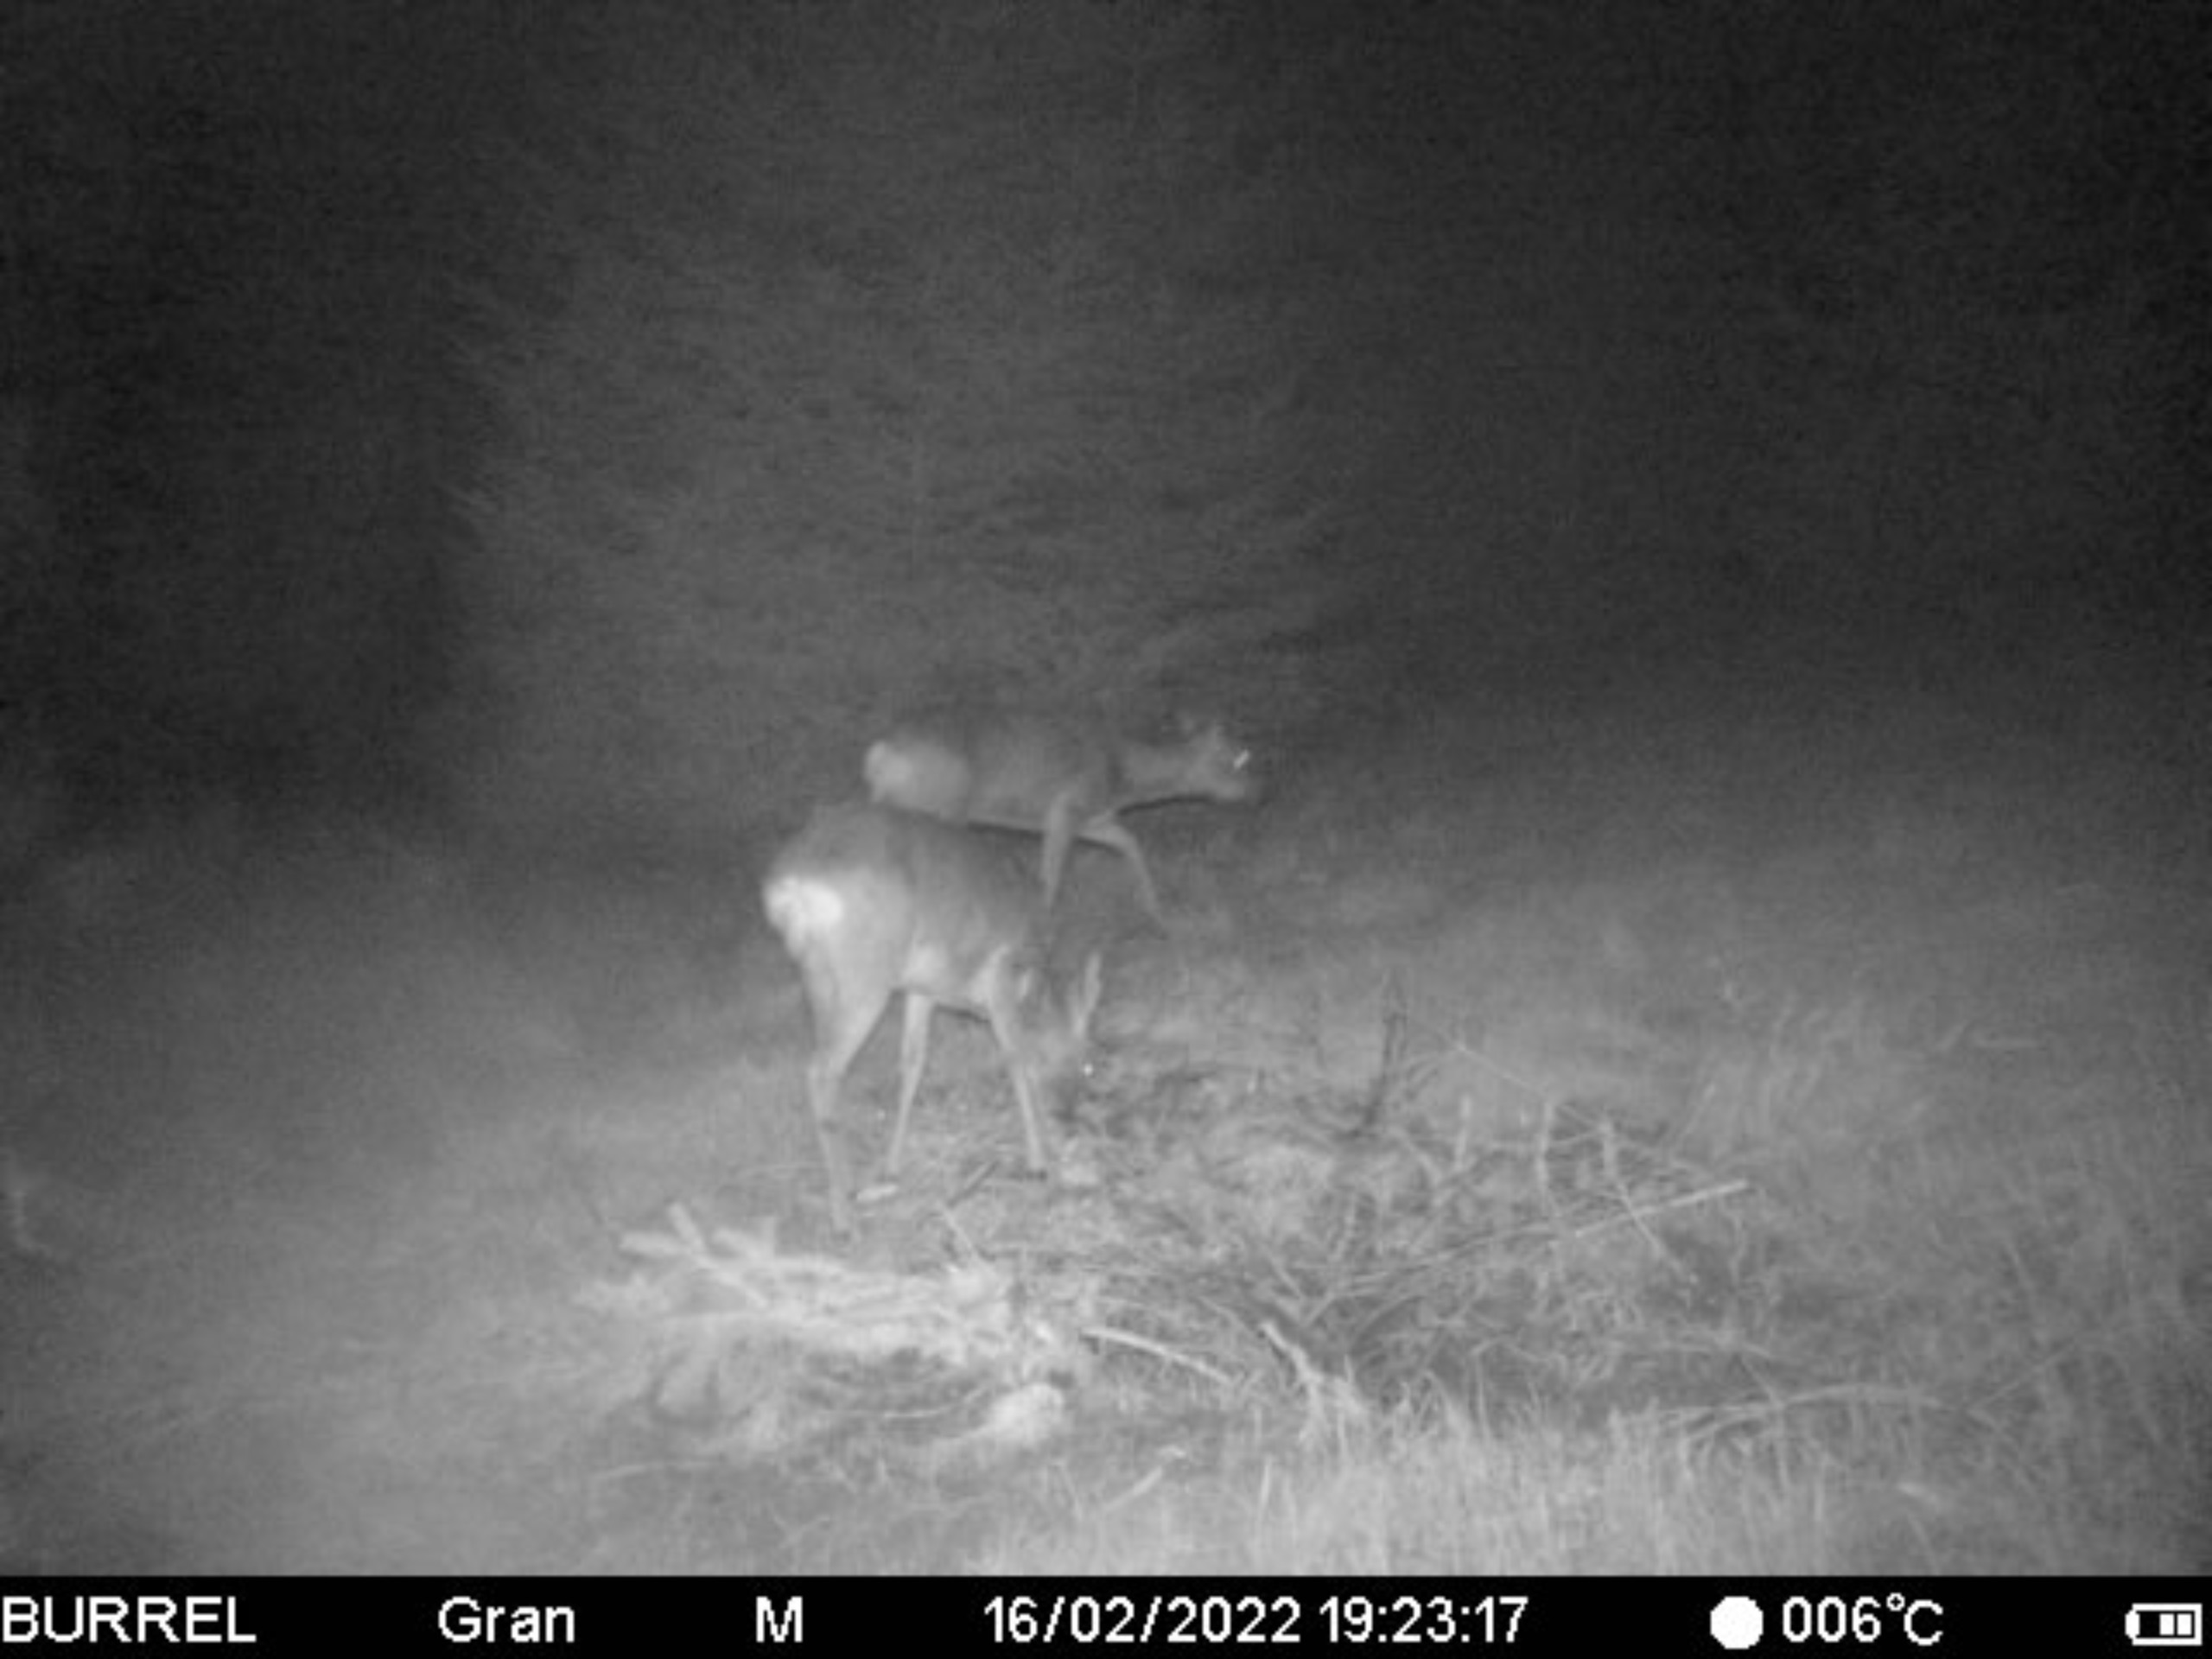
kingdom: Animalia
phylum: Chordata
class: Mammalia
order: Artiodactyla
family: Cervidae
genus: Capreolus
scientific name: Capreolus capreolus
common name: Rådyr
